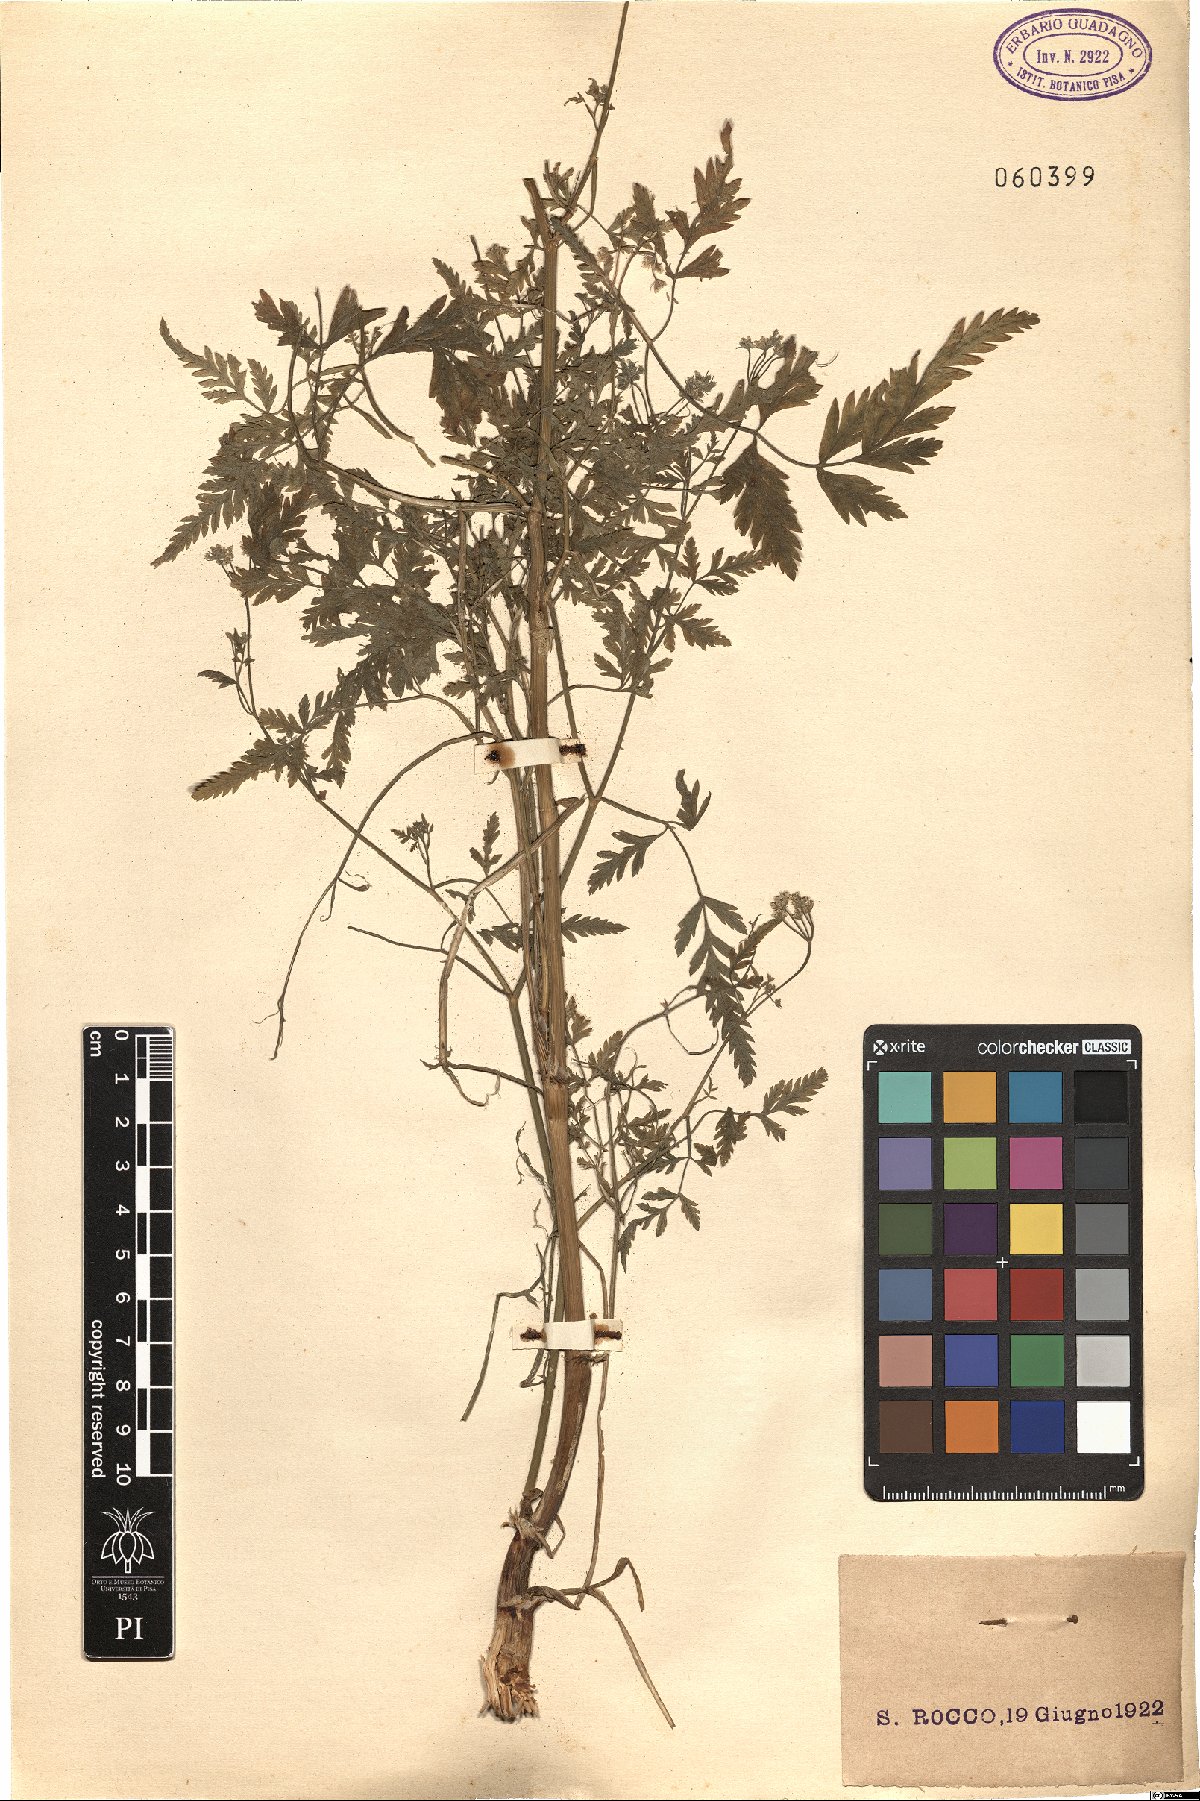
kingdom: Plantae
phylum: Tracheophyta
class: Magnoliopsida
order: Apiales
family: Apiaceae
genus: Anthriscus
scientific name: Anthriscus
